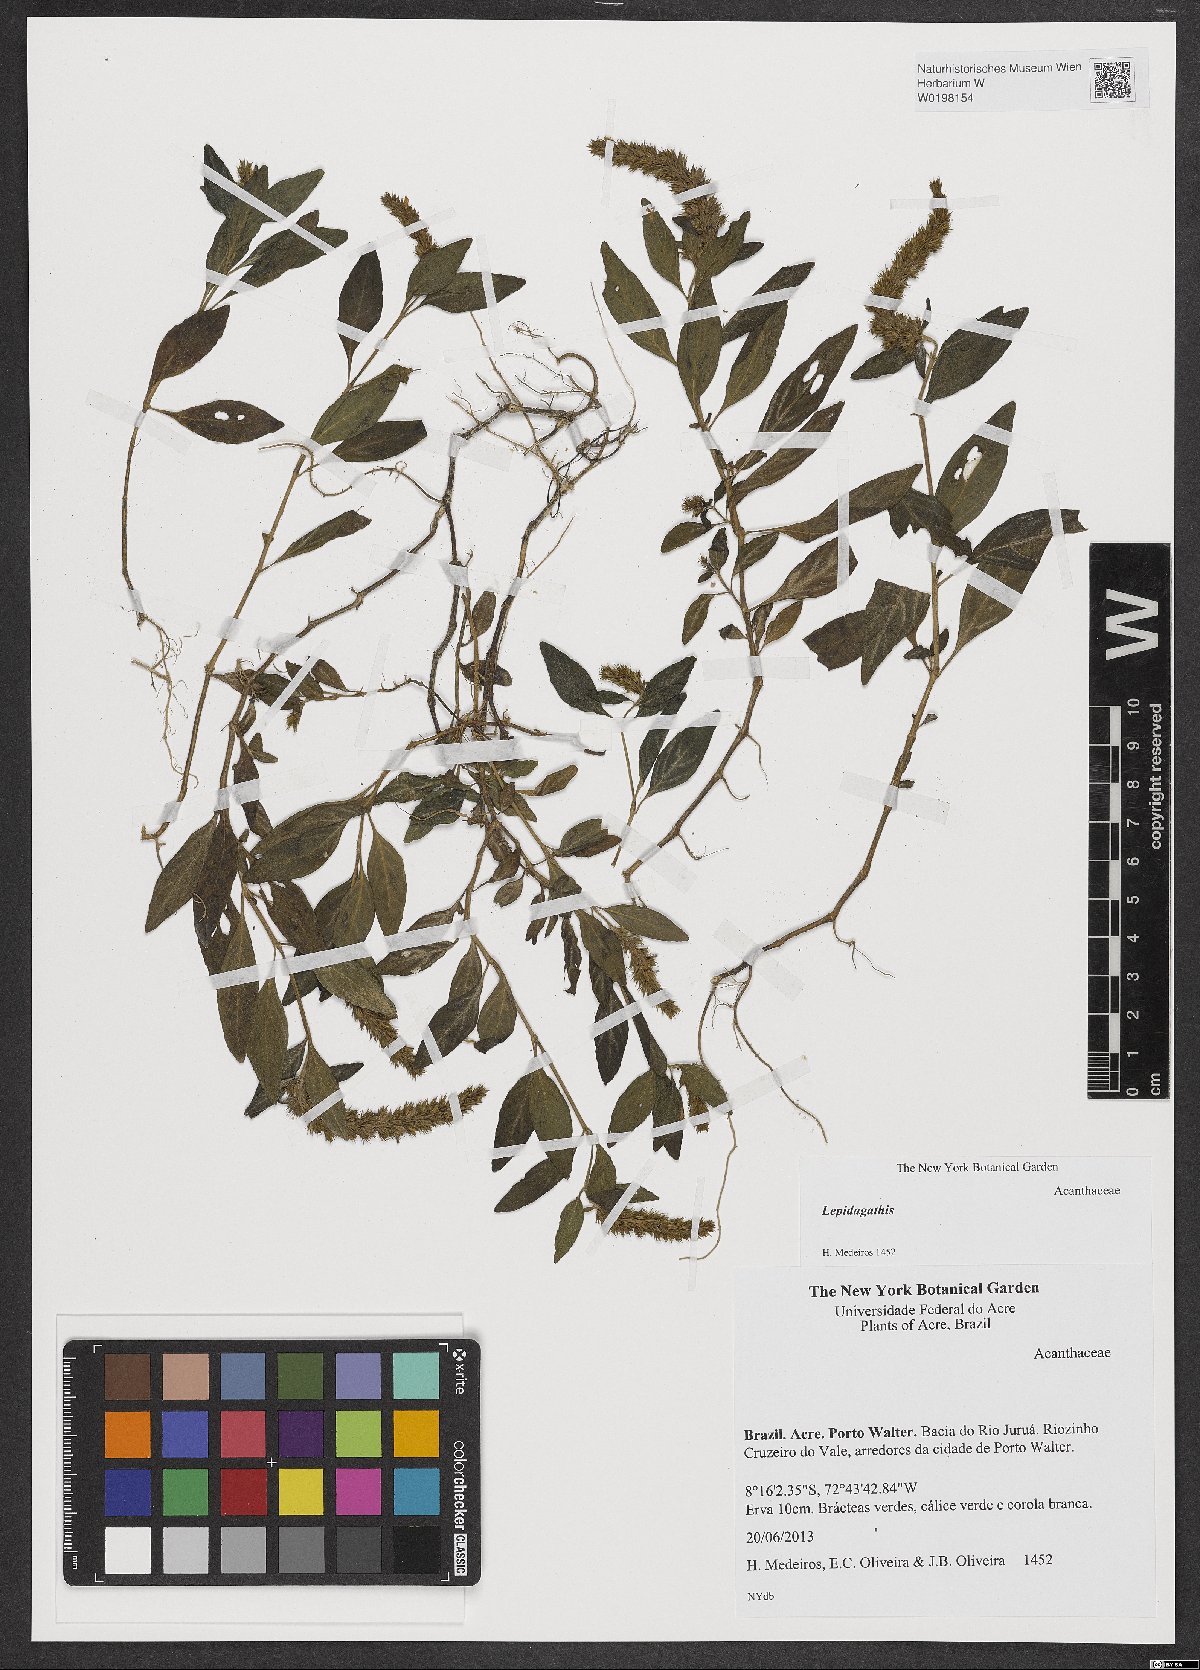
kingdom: Plantae
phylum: Tracheophyta
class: Magnoliopsida
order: Lamiales
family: Acanthaceae
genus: Lepidagathis
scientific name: Lepidagathis
